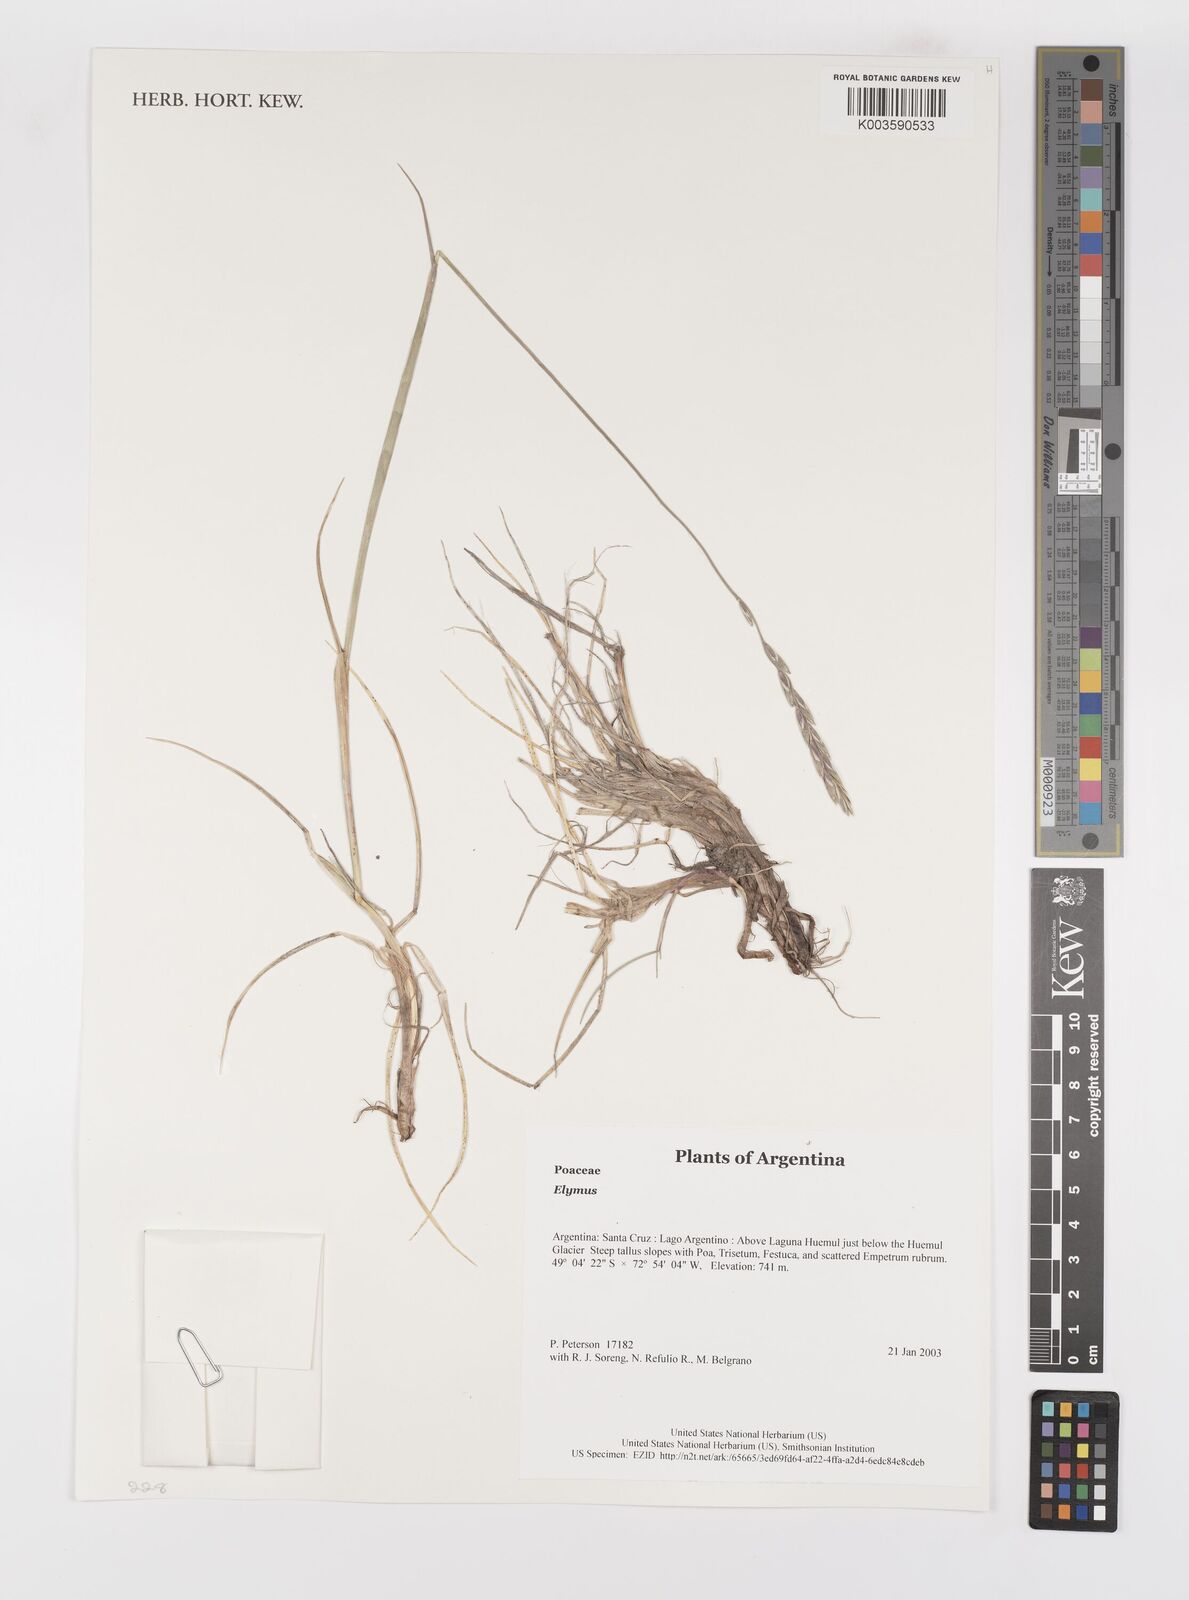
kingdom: Plantae
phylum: Tracheophyta
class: Liliopsida
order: Poales
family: Poaceae
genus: Elymus
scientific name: Elymus
